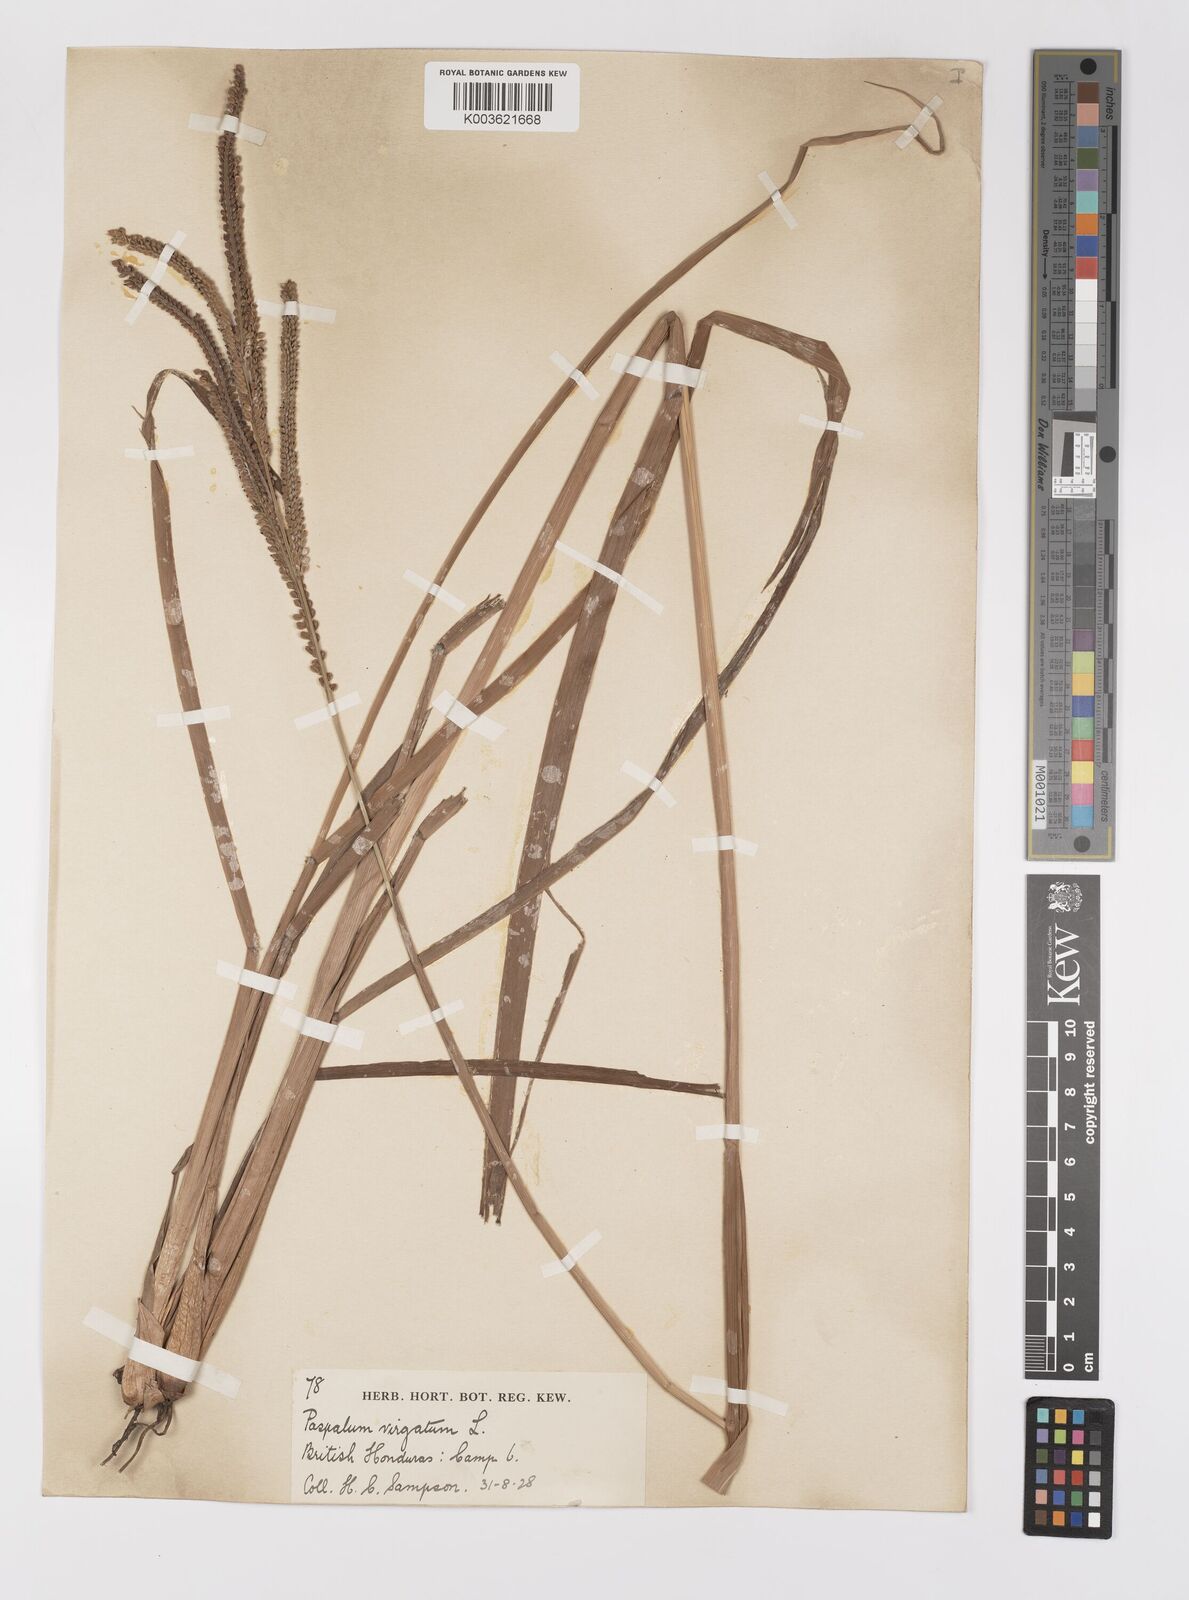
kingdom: Plantae
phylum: Tracheophyta
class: Liliopsida
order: Poales
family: Poaceae
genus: Paspalum
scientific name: Paspalum virgatum
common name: Talquezal
